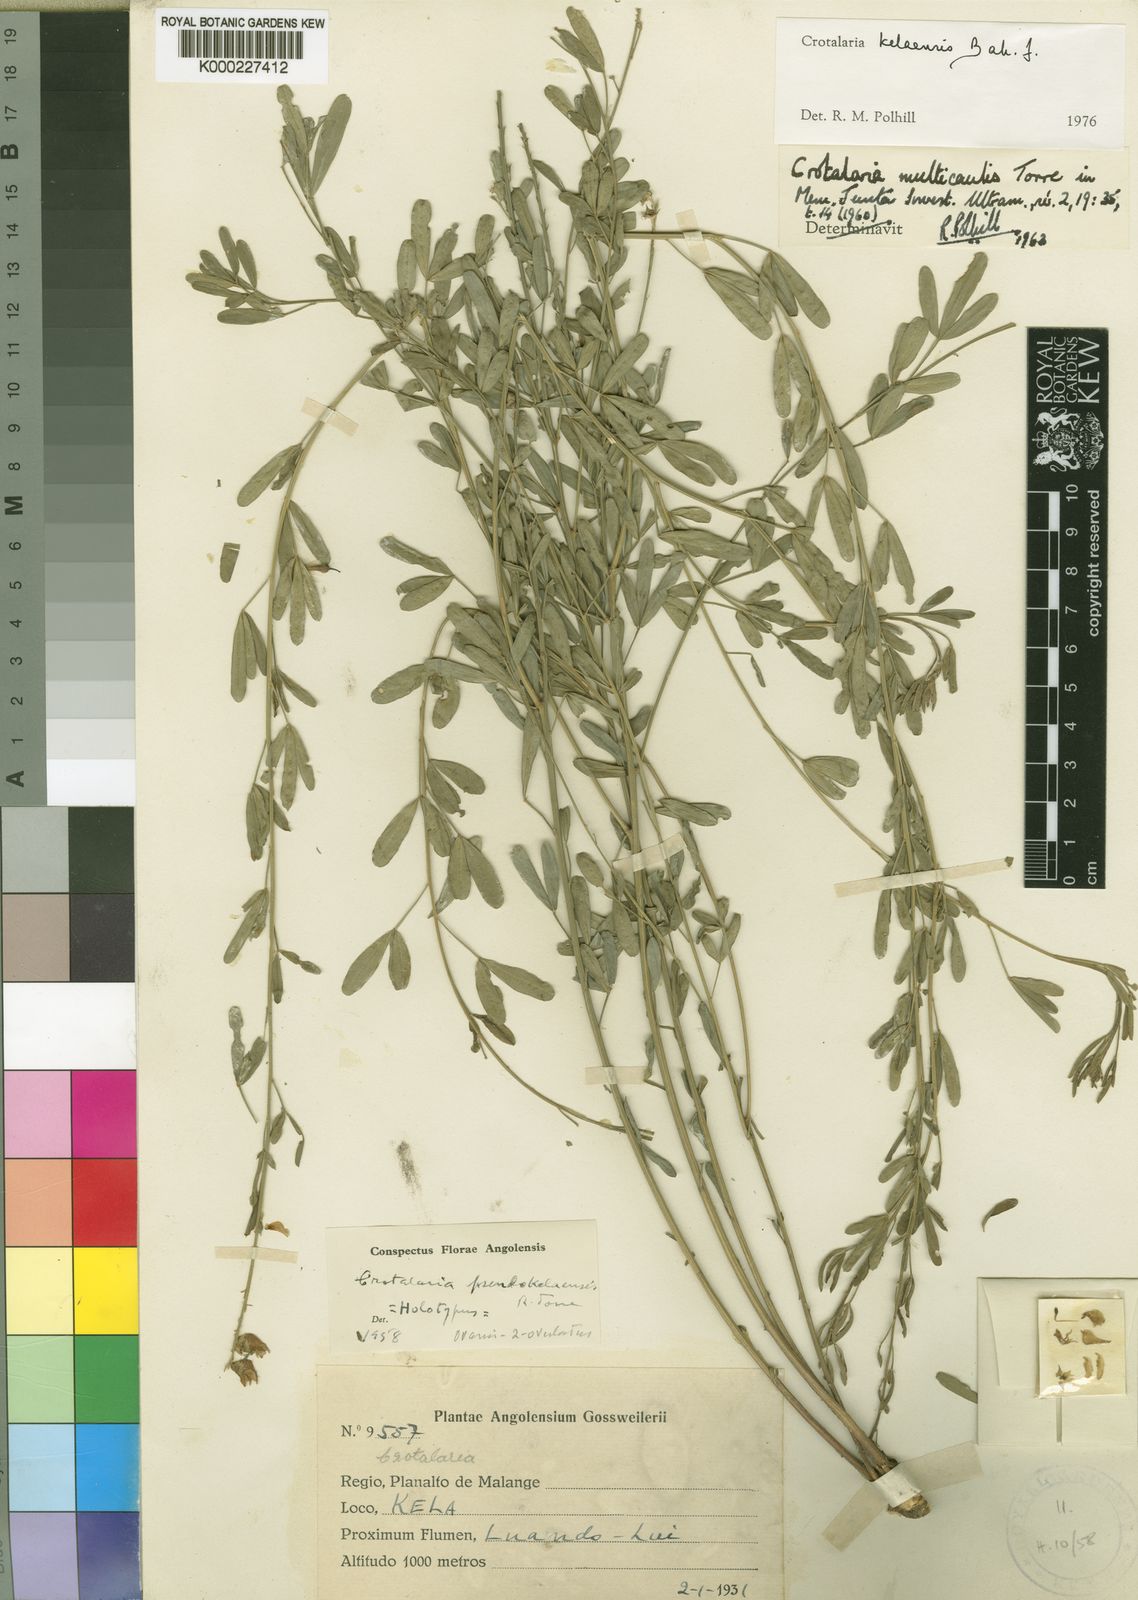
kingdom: Plantae
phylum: Tracheophyta
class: Magnoliopsida
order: Fabales
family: Fabaceae
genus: Crotalaria
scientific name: Crotalaria kelaensis
